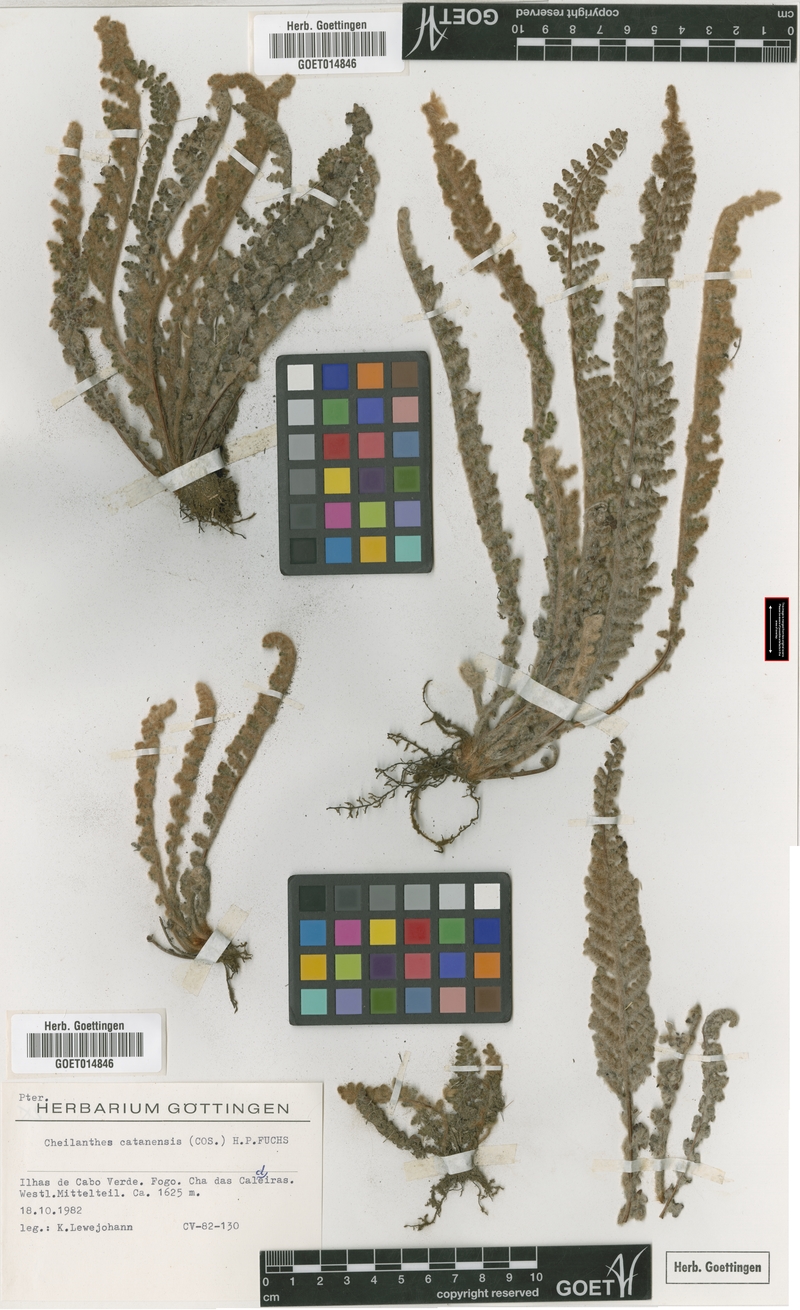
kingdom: Plantae
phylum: Tracheophyta
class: Polypodiopsida
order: Polypodiales
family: Pteridaceae
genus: Cosentinia
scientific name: Cosentinia vellea
